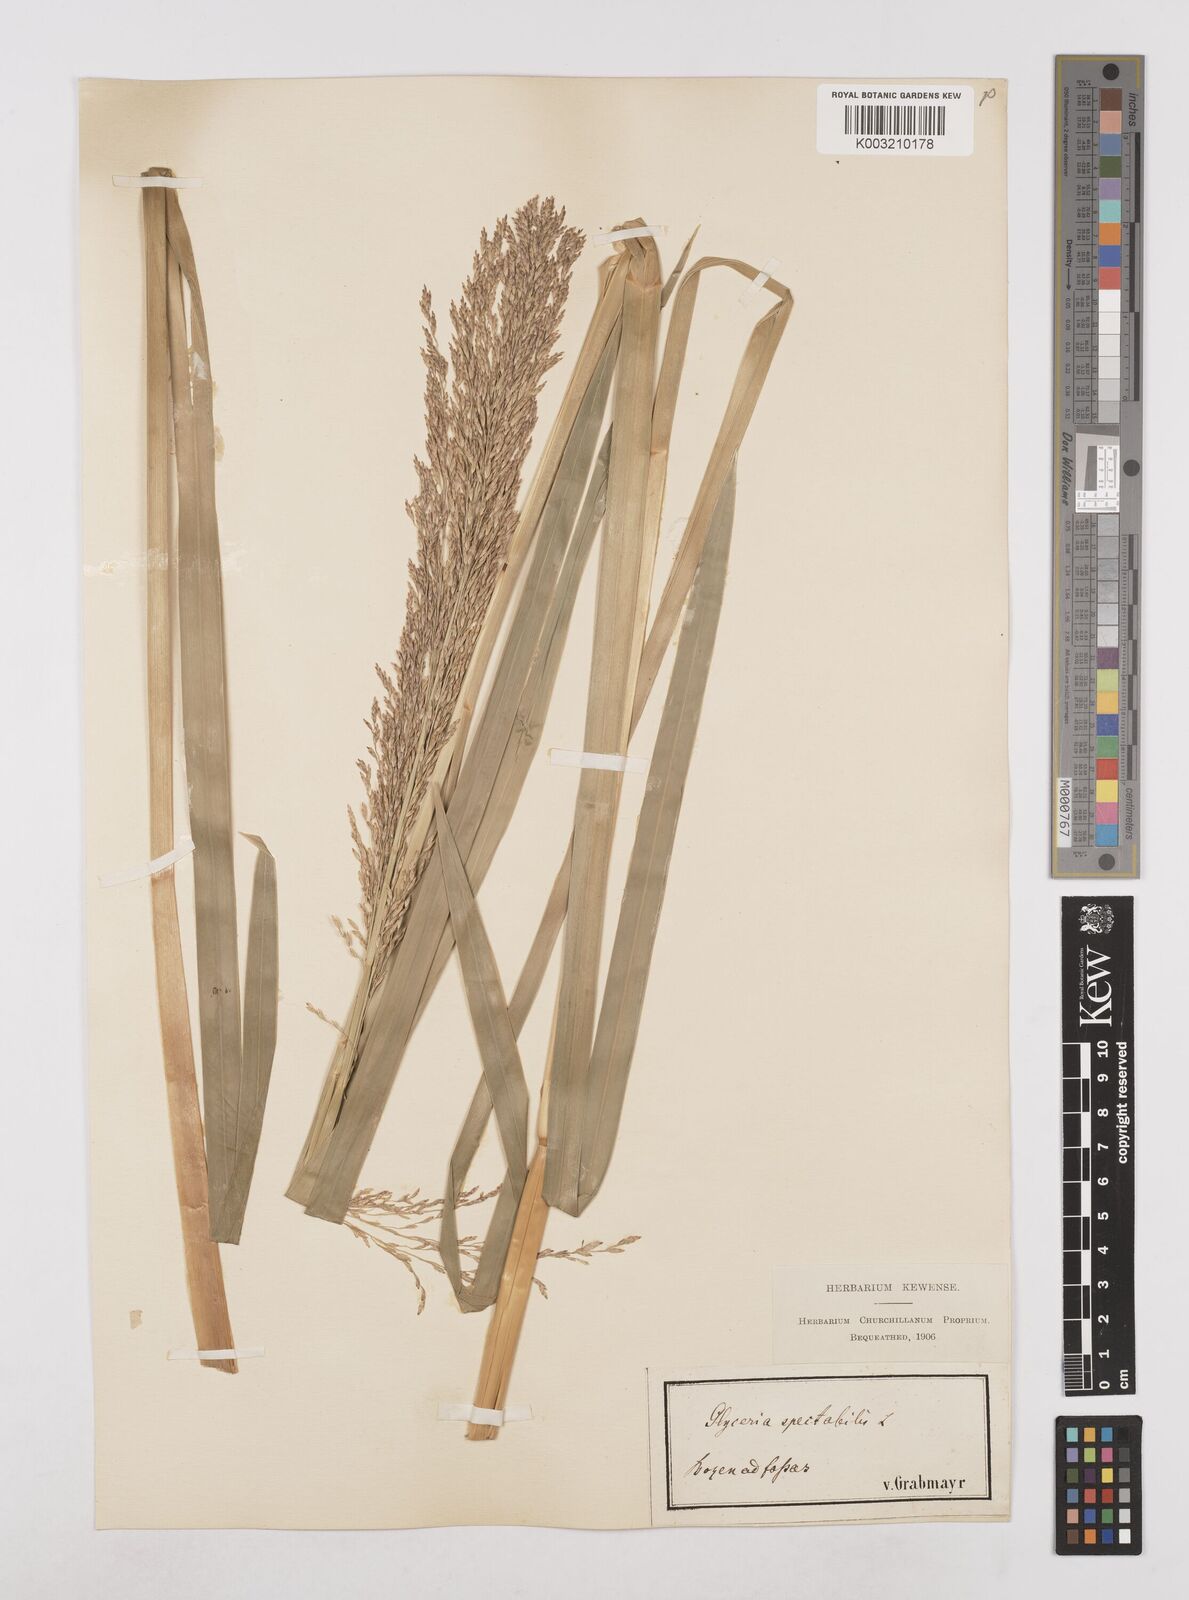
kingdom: Plantae
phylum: Tracheophyta
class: Liliopsida
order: Poales
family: Poaceae
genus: Glyceria
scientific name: Glyceria maxima
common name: Reed mannagrass
